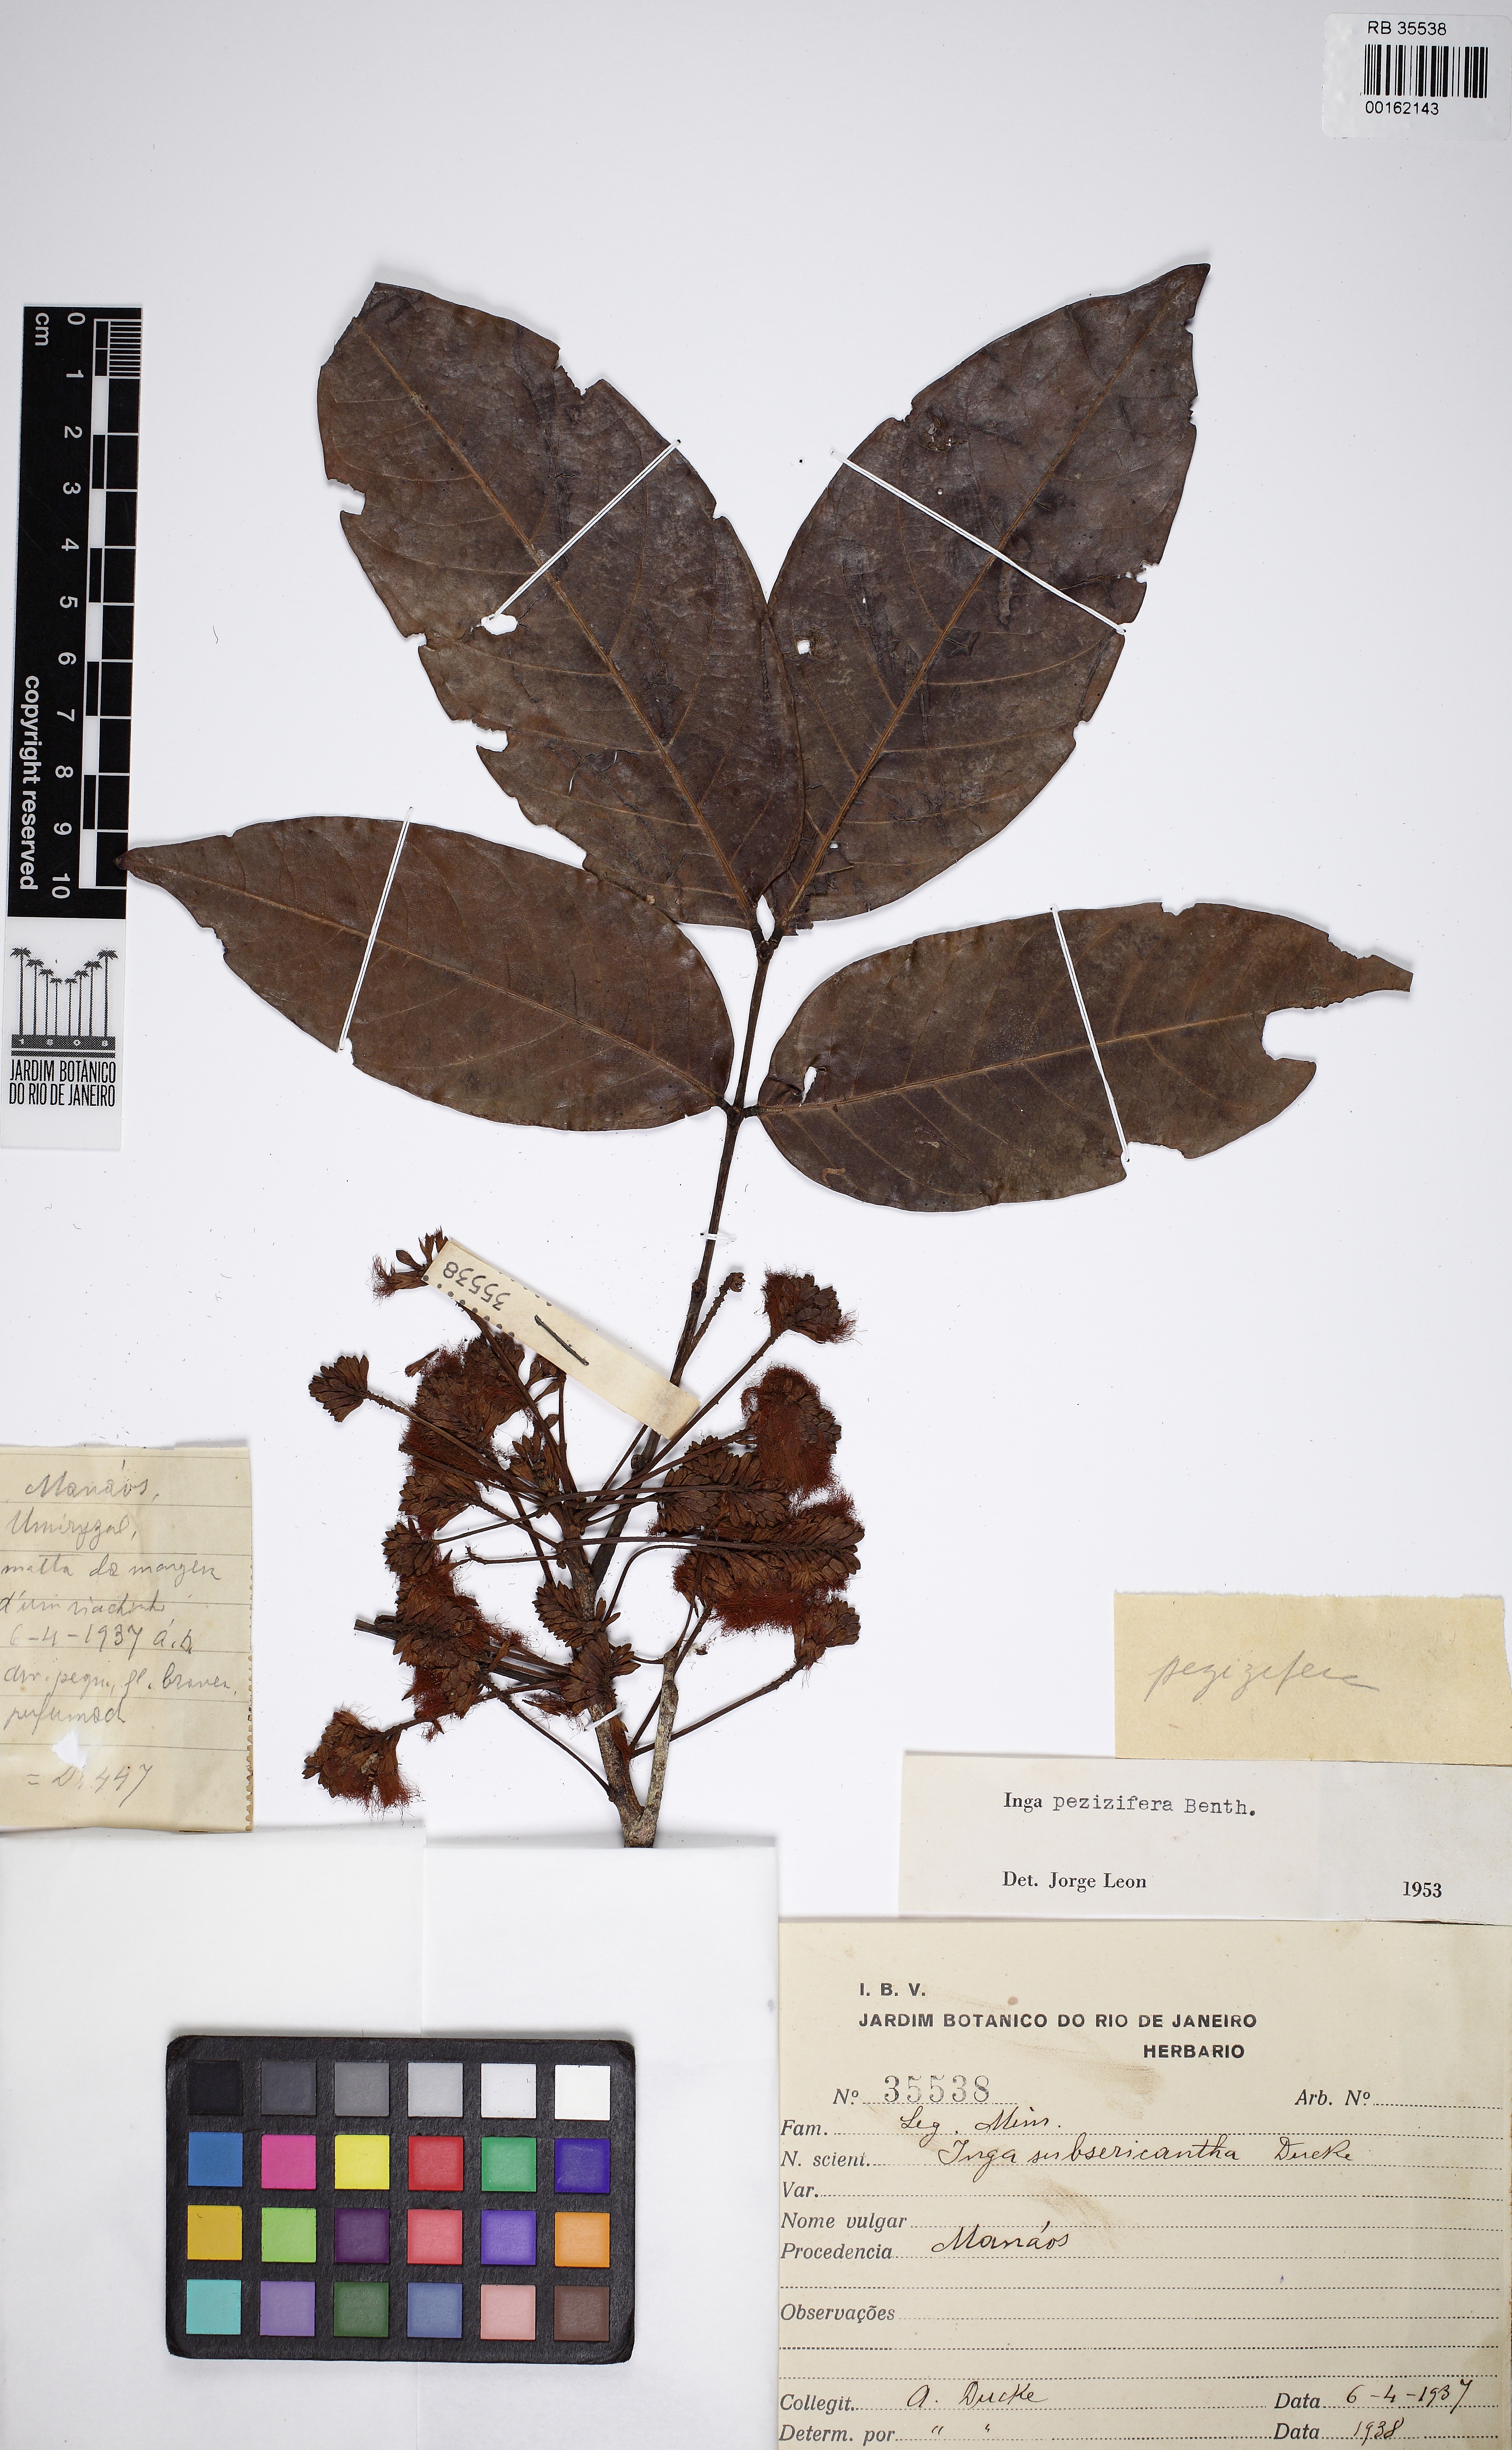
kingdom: Plantae
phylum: Tracheophyta
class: Magnoliopsida
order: Fabales
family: Fabaceae
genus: Inga
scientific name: Inga pezizifera
